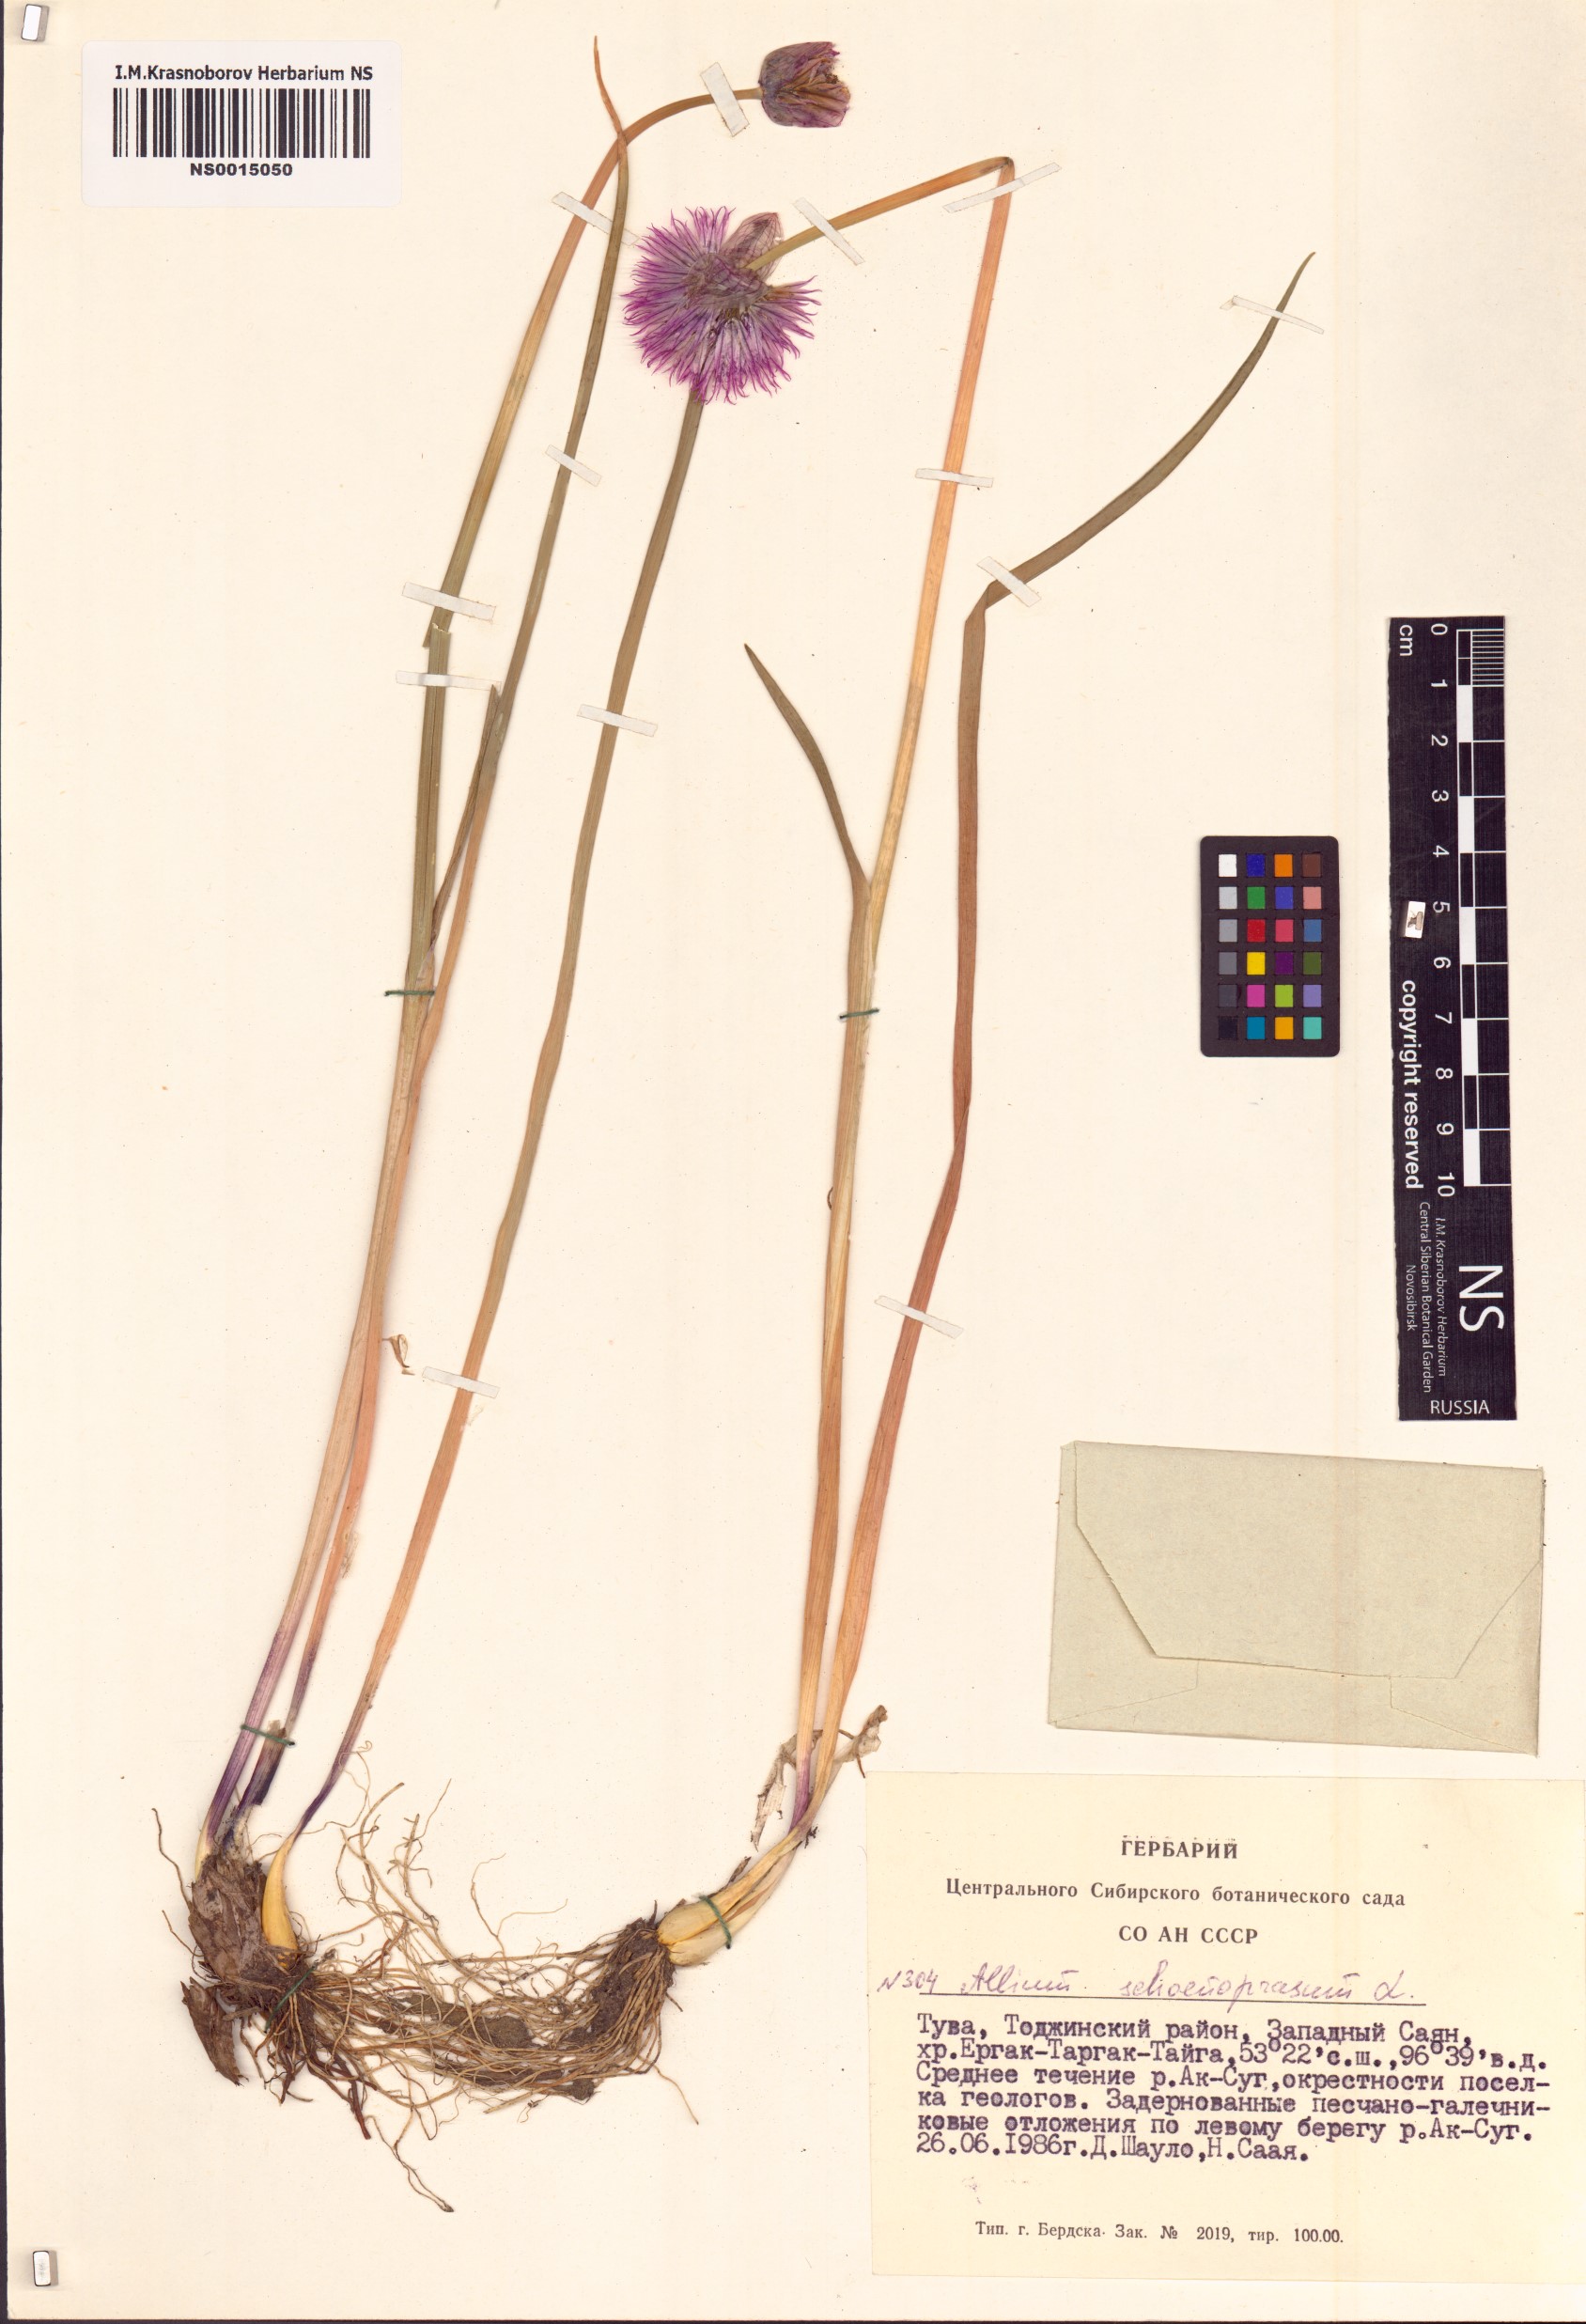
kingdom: Plantae
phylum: Tracheophyta
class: Liliopsida
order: Asparagales
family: Amaryllidaceae
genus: Allium
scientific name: Allium schoenoprasum
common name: Chives
